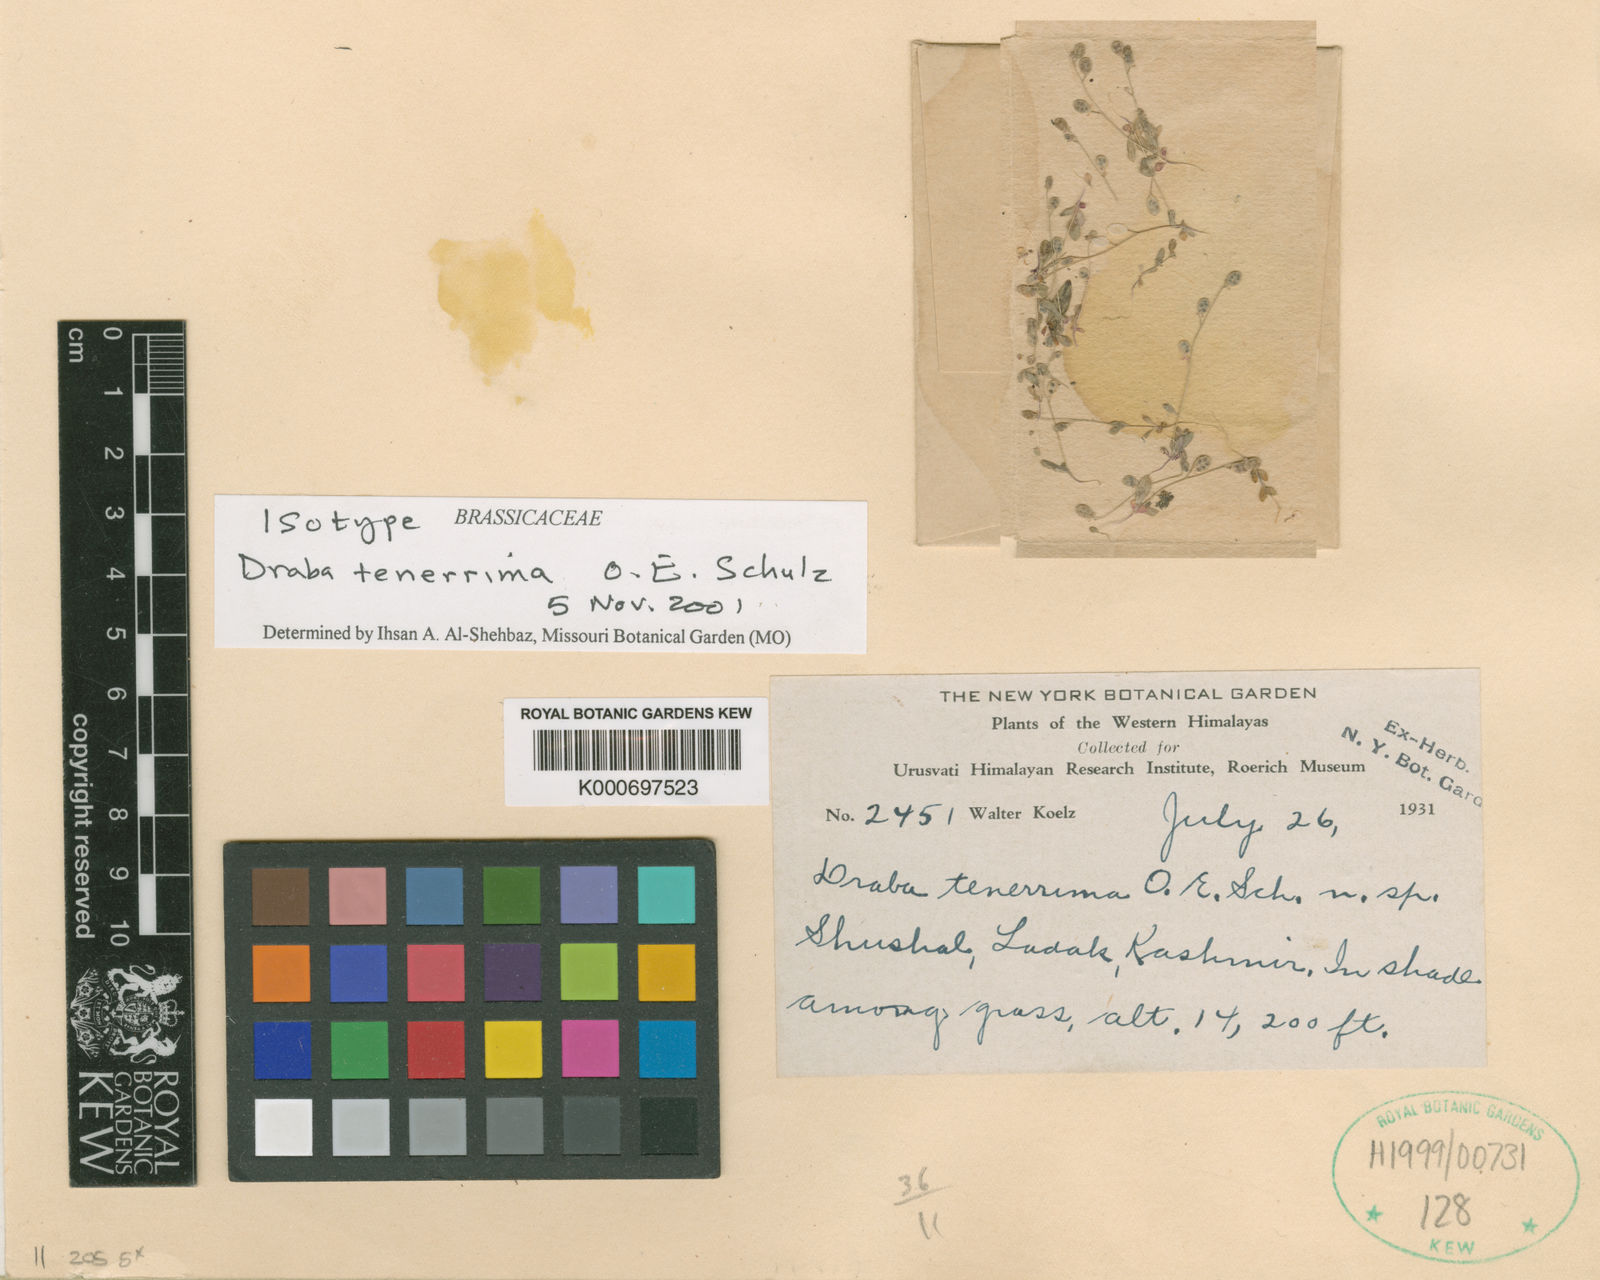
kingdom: Plantae
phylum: Tracheophyta
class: Magnoliopsida
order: Brassicales
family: Brassicaceae
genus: Draba
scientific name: Draba tenerrima
